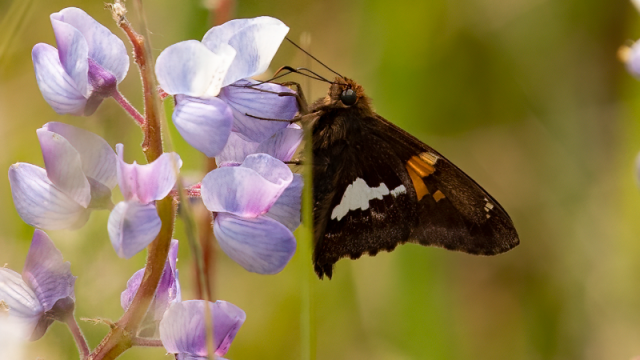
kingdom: Animalia
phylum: Arthropoda
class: Insecta
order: Lepidoptera
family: Hesperiidae
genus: Epargyreus
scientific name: Epargyreus clarus
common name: Silver-spotted Skipper
